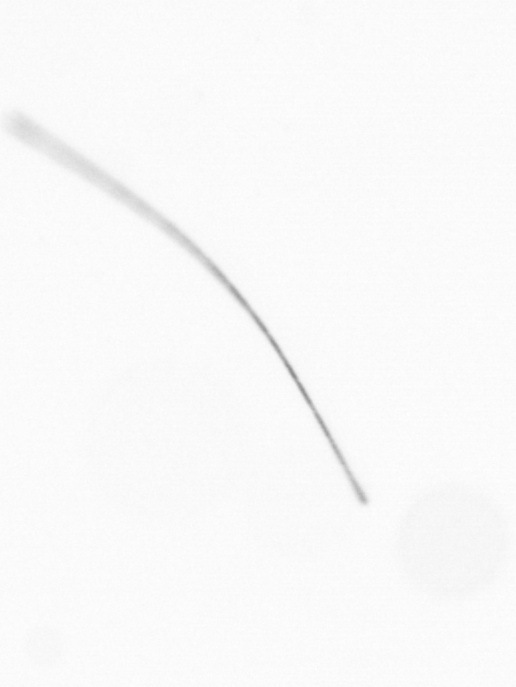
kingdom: Chromista
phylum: Ochrophyta
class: Bacillariophyceae
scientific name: Bacillariophyceae
